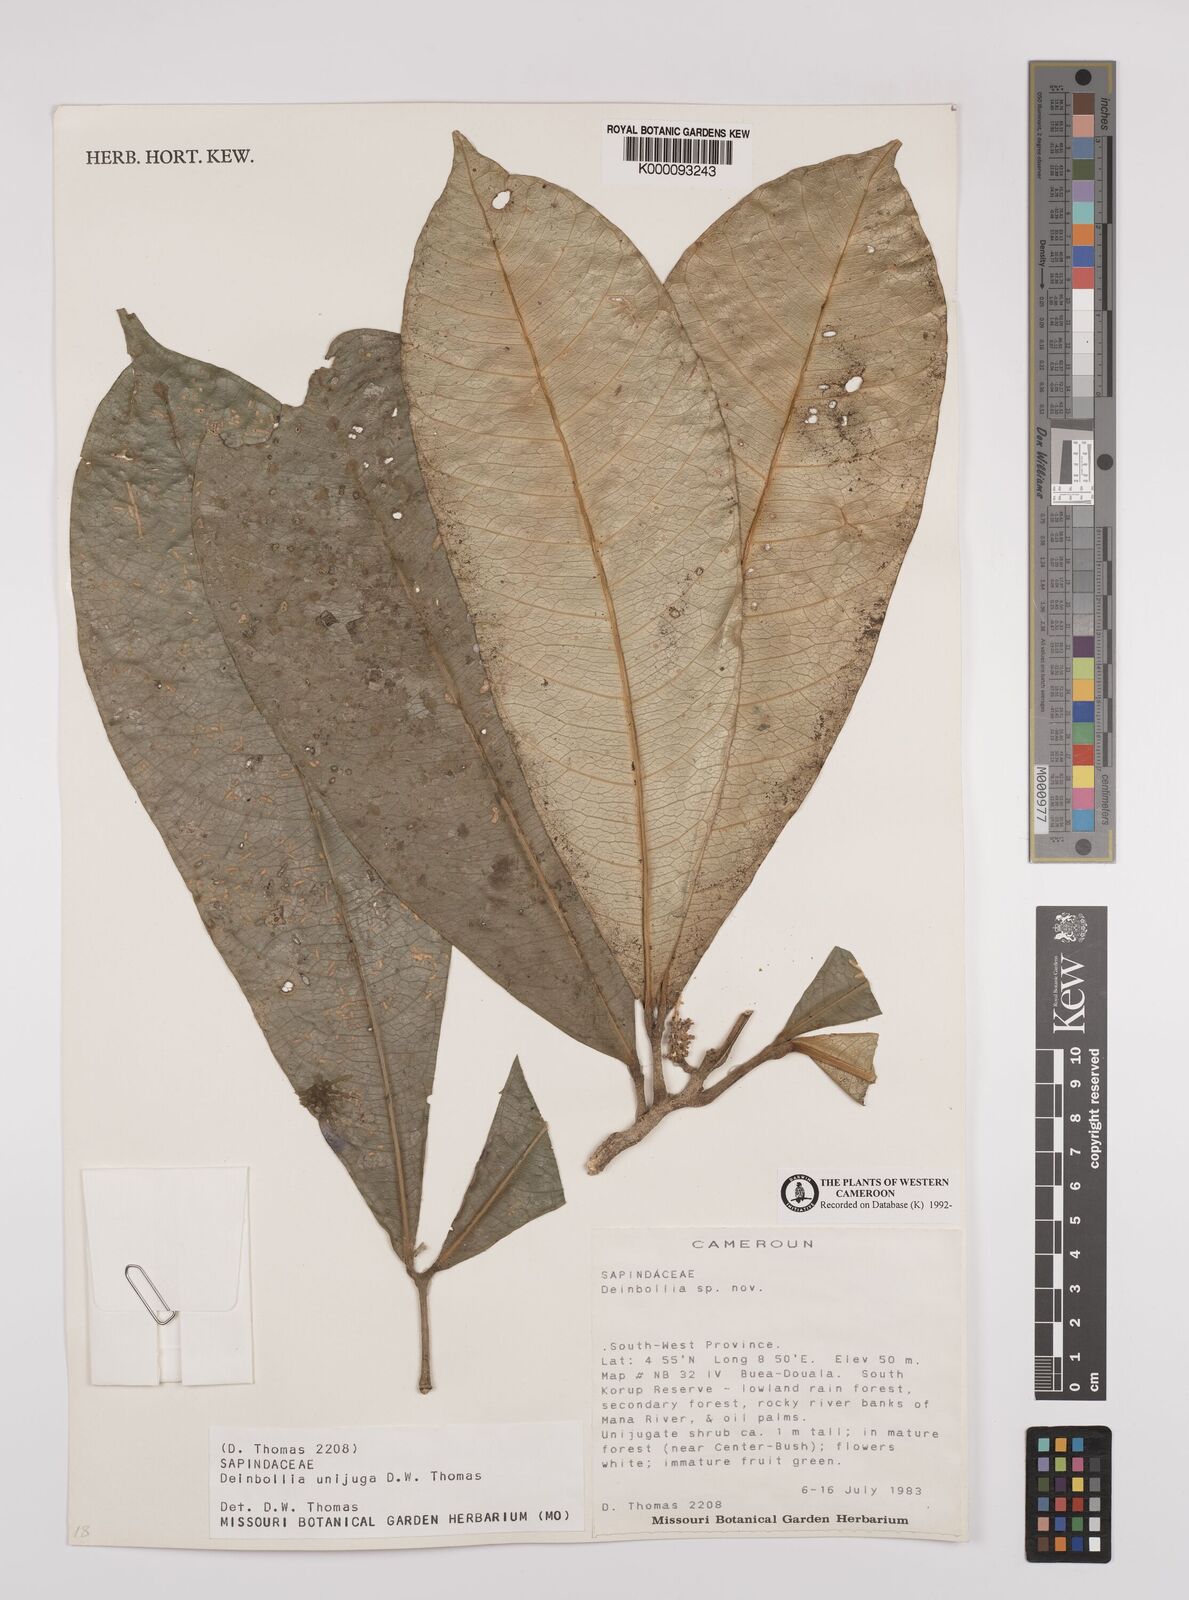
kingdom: Plantae
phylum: Tracheophyta
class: Magnoliopsida
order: Sapindales
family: Sapindaceae
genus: Deinbollia
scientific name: Deinbollia unijuga
